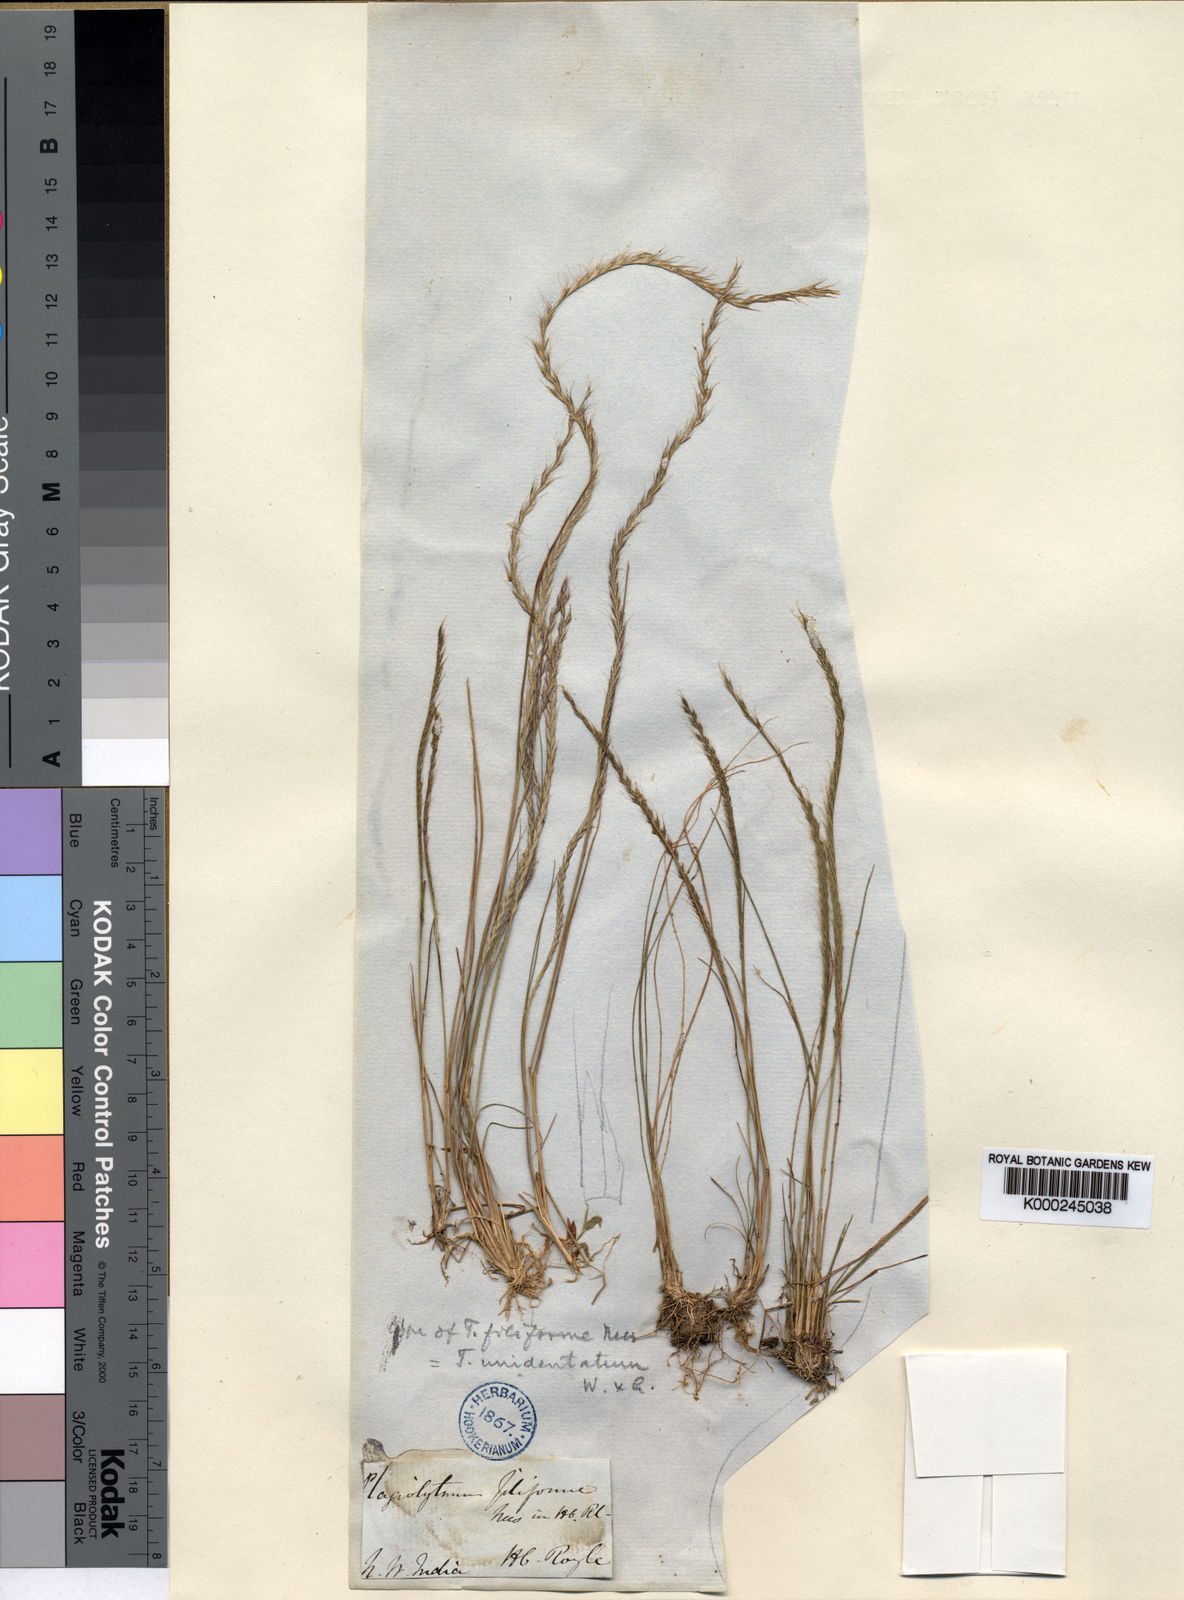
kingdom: Plantae
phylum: Tracheophyta
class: Liliopsida
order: Poales
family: Poaceae
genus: Tripogon
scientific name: Tripogon filiformis
